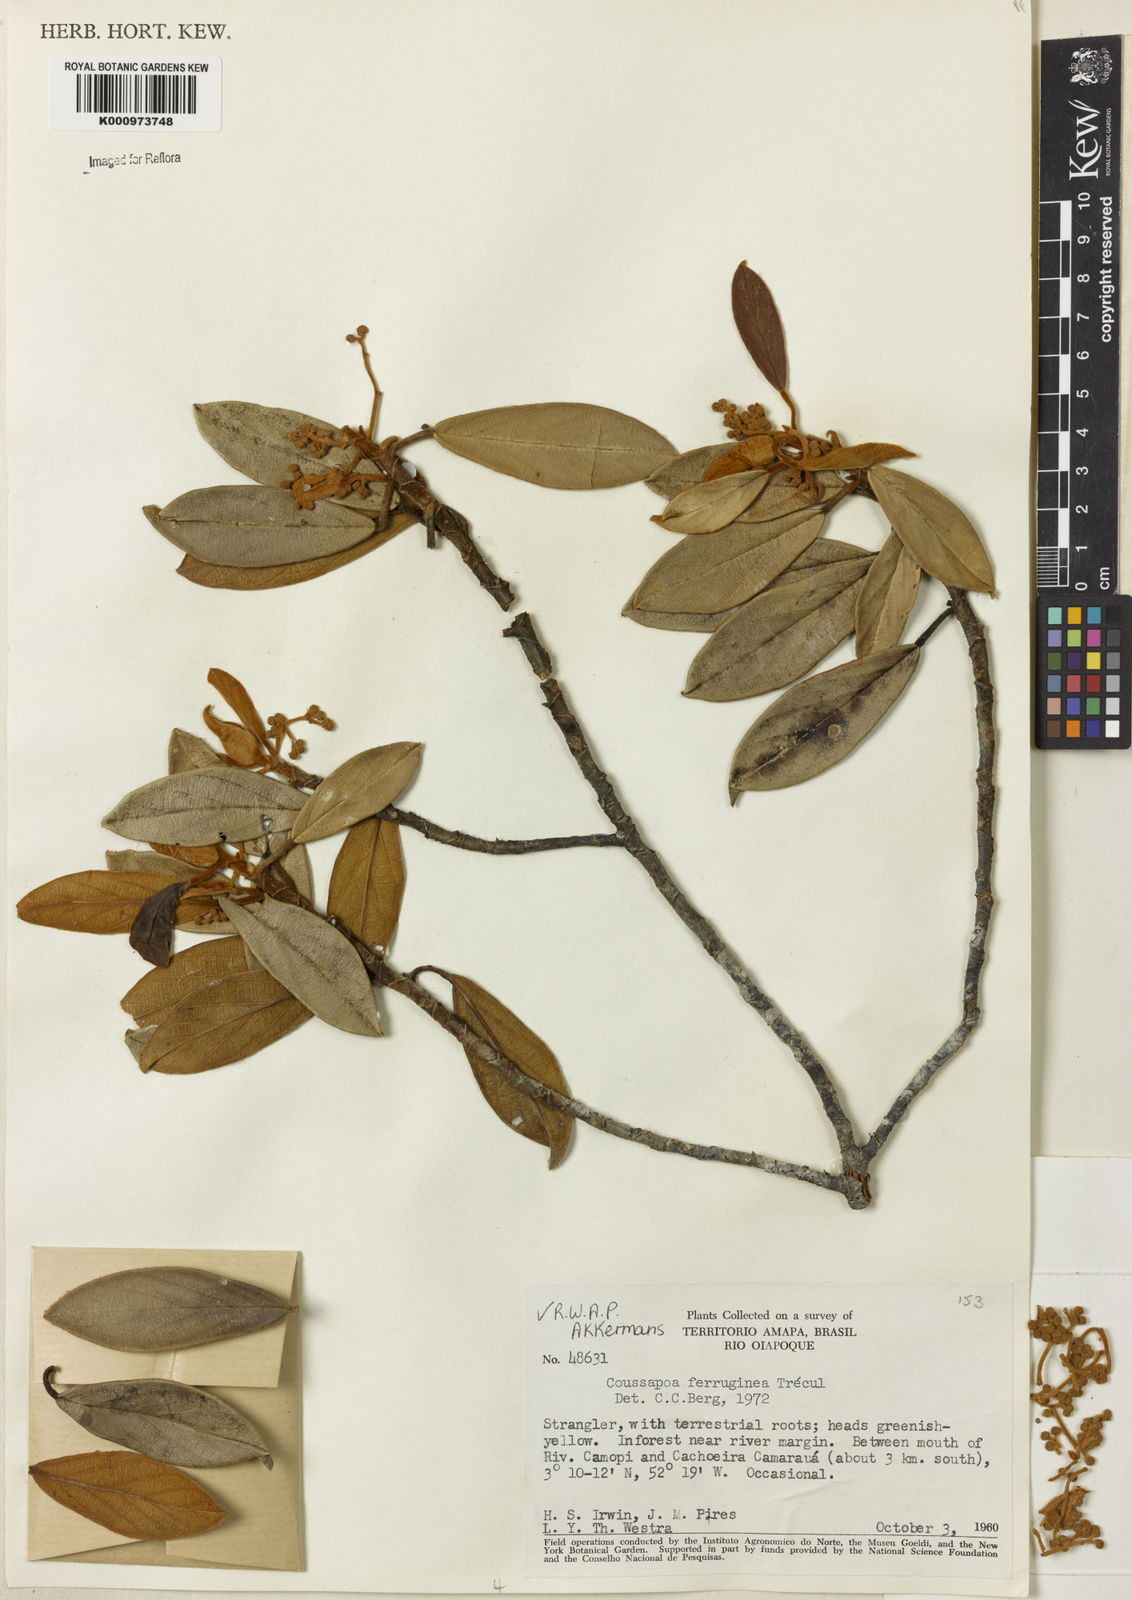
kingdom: Plantae
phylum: Tracheophyta
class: Magnoliopsida
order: Rosales
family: Urticaceae
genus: Coussapoa
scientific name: Coussapoa
